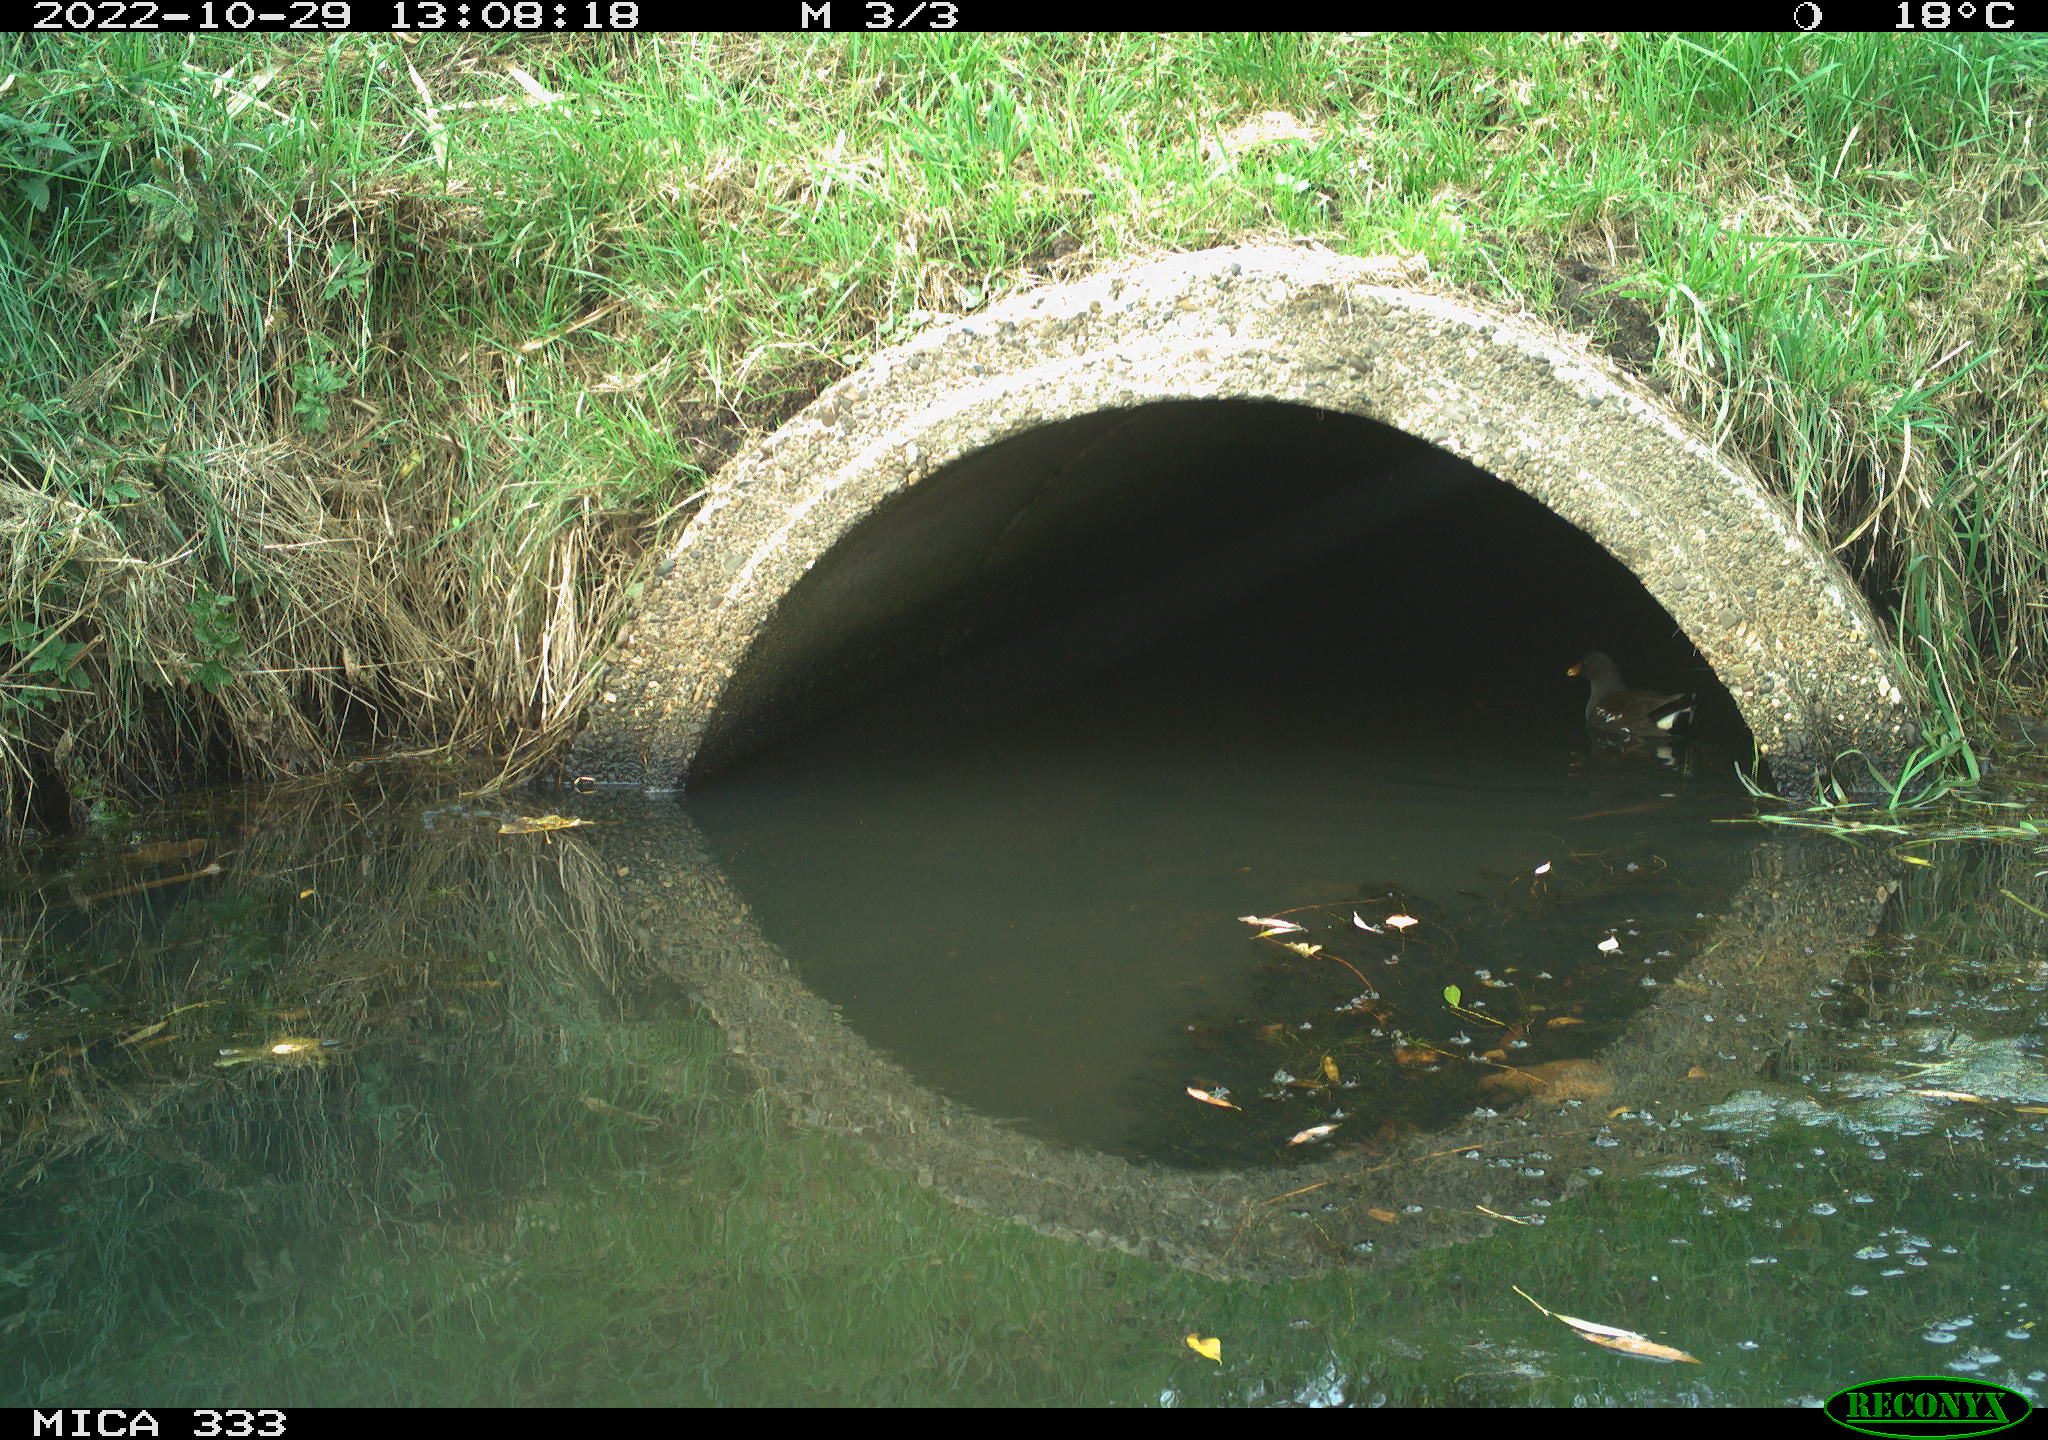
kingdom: Animalia
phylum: Chordata
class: Aves
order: Gruiformes
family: Rallidae
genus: Gallinula
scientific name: Gallinula chloropus
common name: Common moorhen
